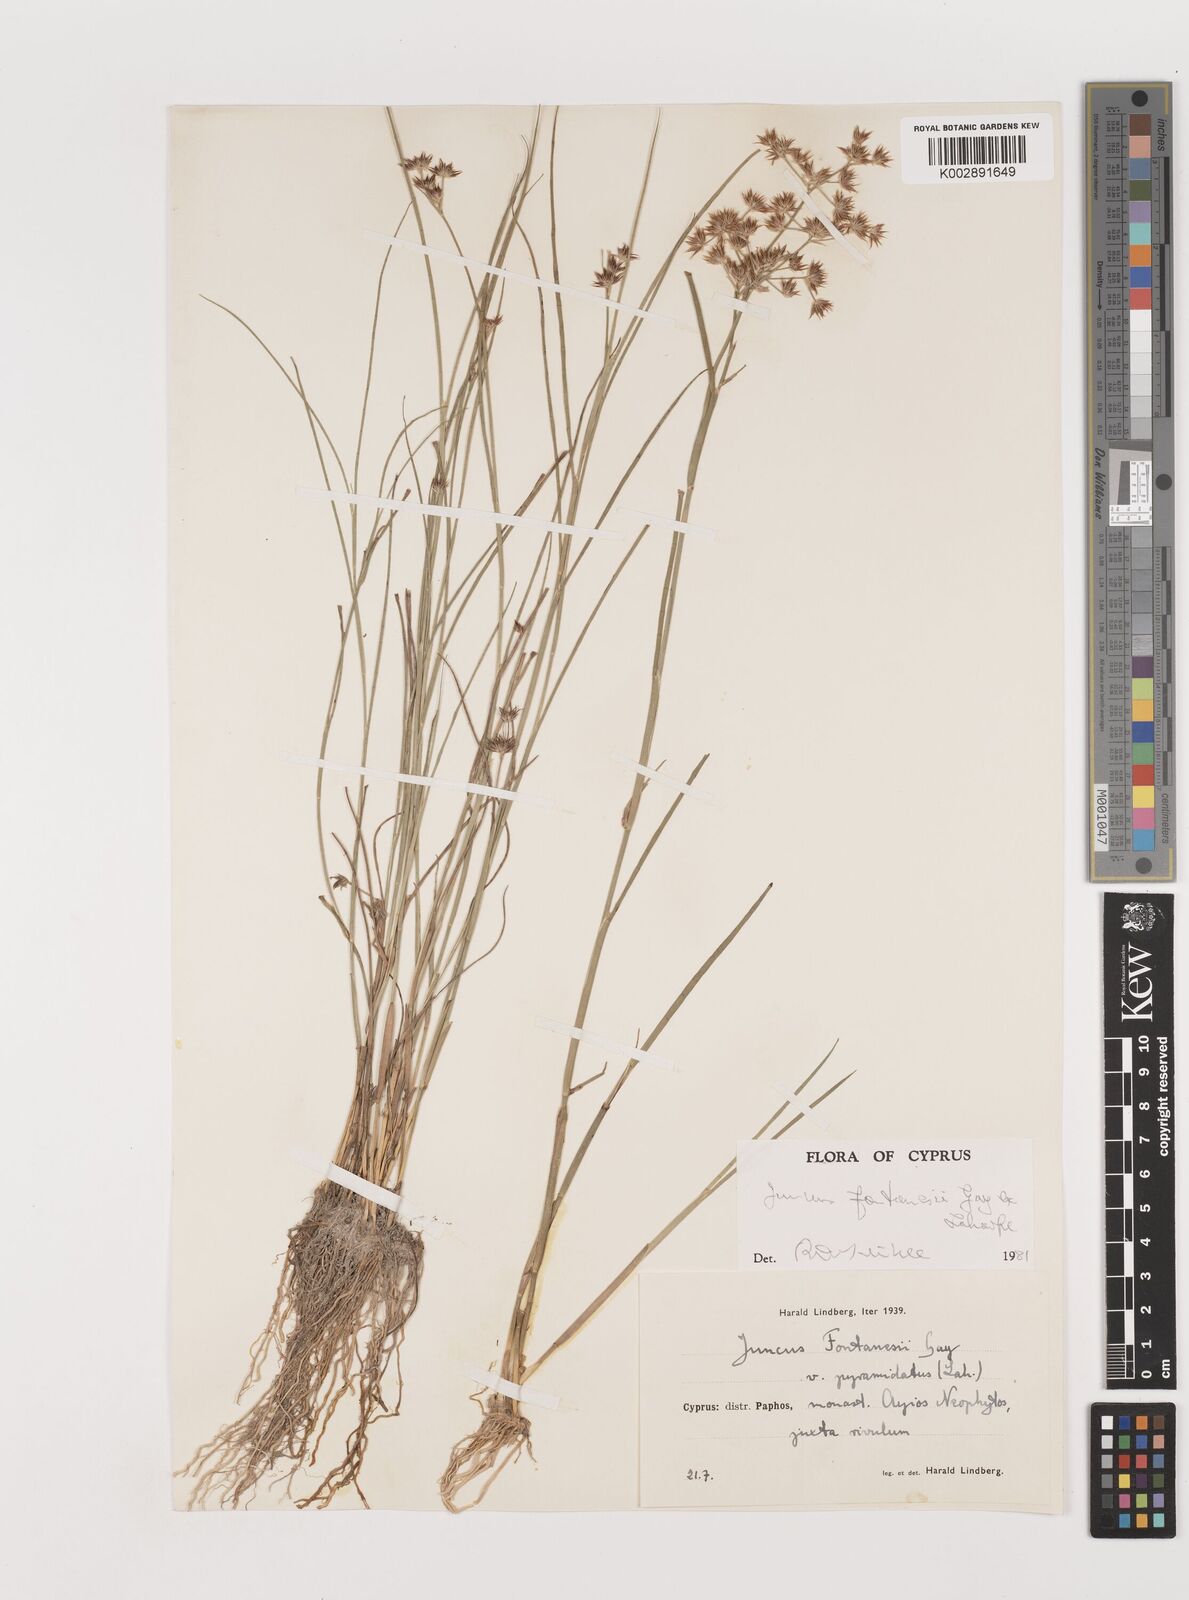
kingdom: Plantae
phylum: Tracheophyta
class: Liliopsida
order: Poales
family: Juncaceae
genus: Juncus
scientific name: Juncus fontanesii
